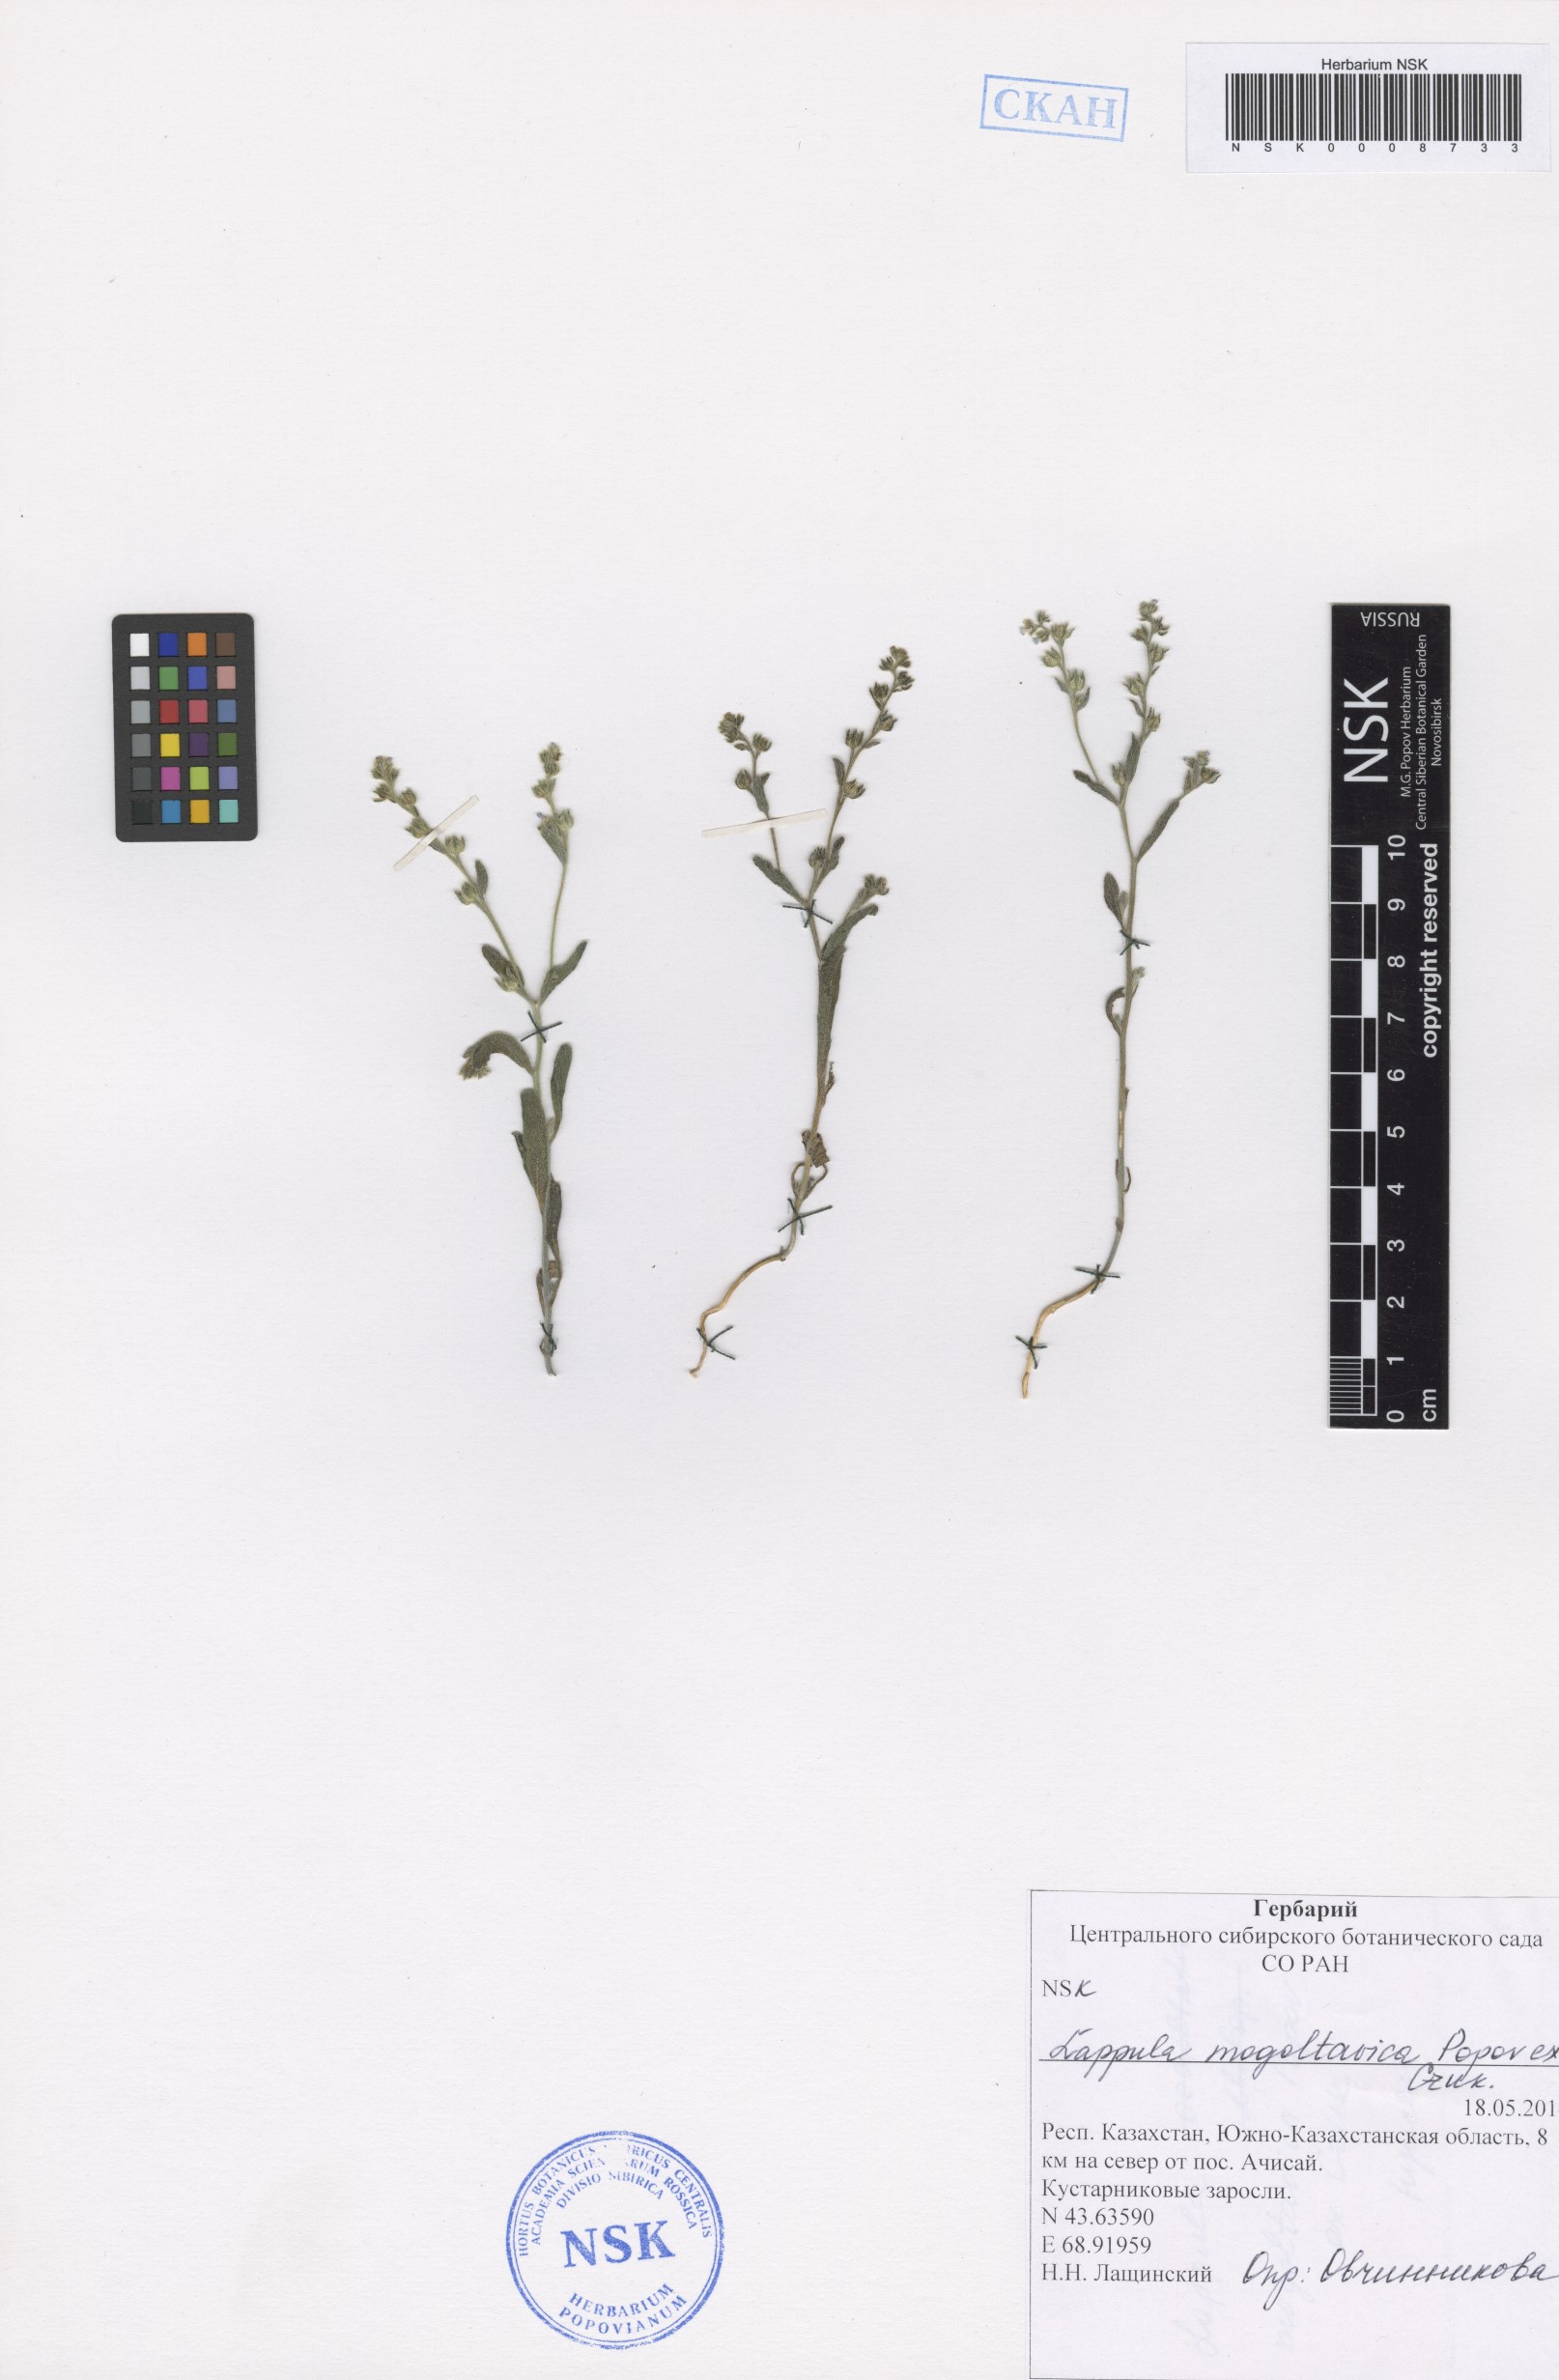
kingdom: Plantae
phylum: Tracheophyta
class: Magnoliopsida
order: Boraginales
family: Boraginaceae
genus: Lappula
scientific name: Lappula mogoltavica
